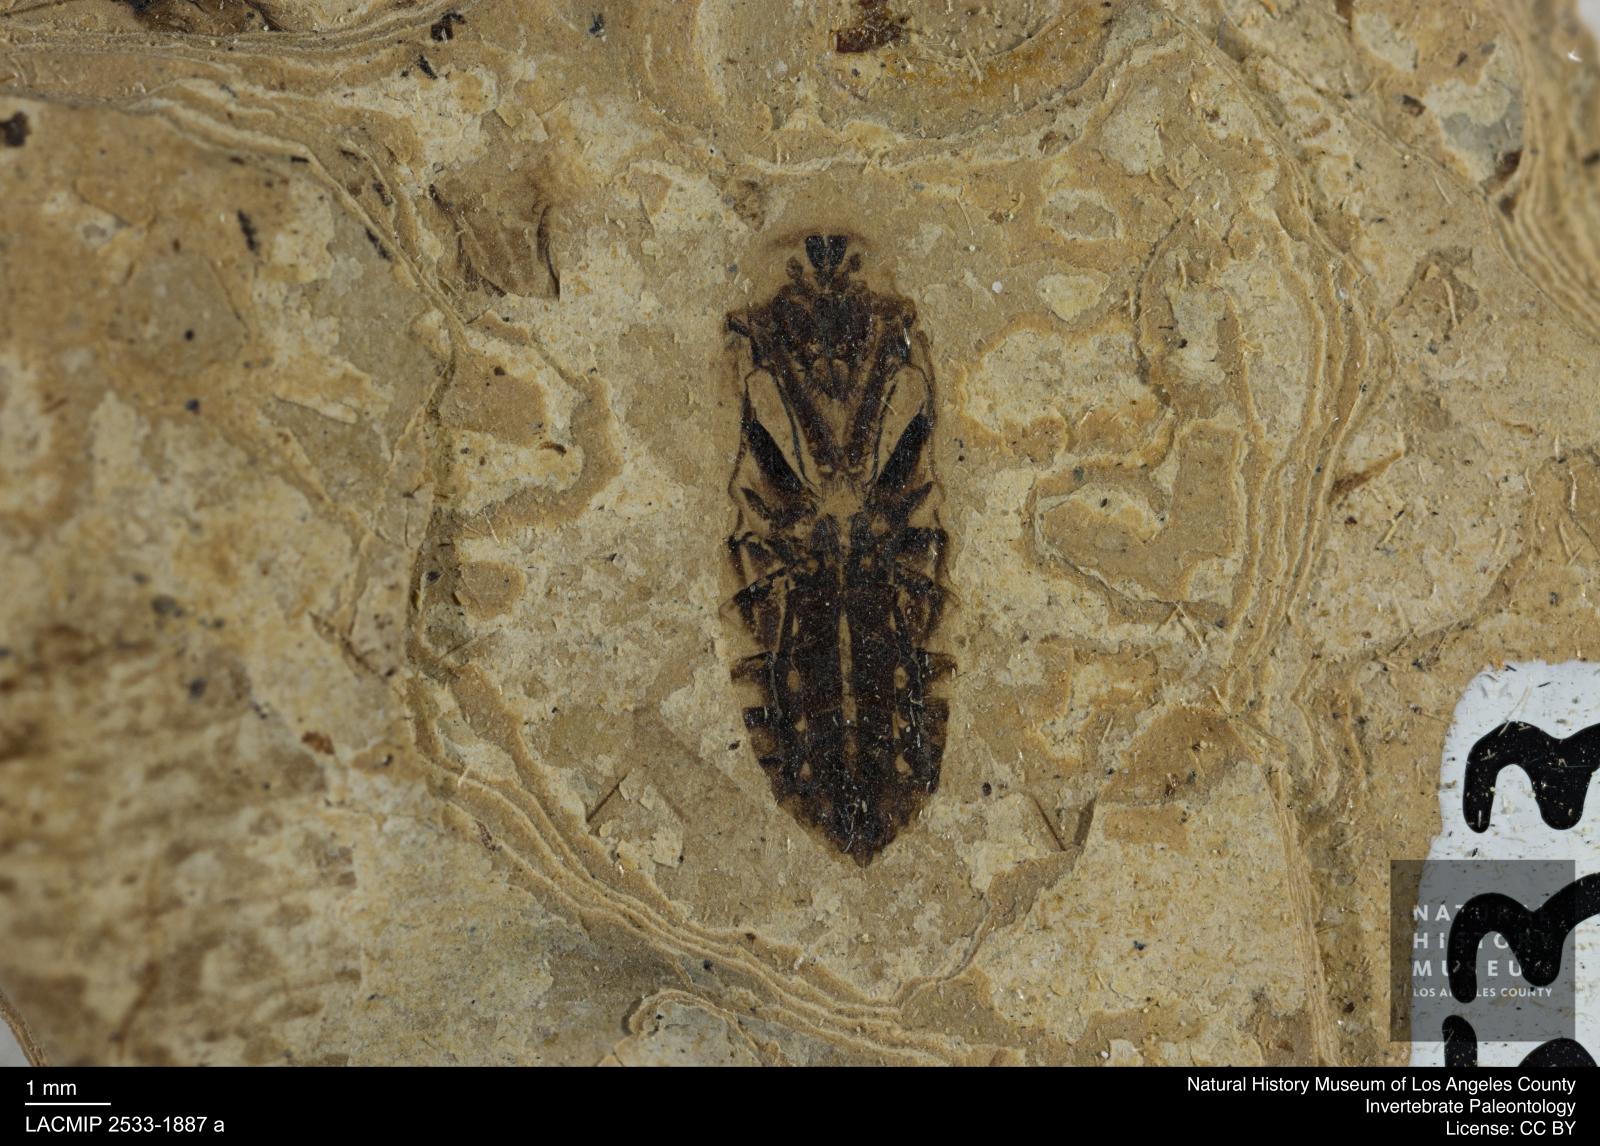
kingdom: Animalia
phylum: Arthropoda
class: Insecta
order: Hemiptera
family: Notonectidae
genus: Anisops
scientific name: Anisops Notonecta deichmuelleri
